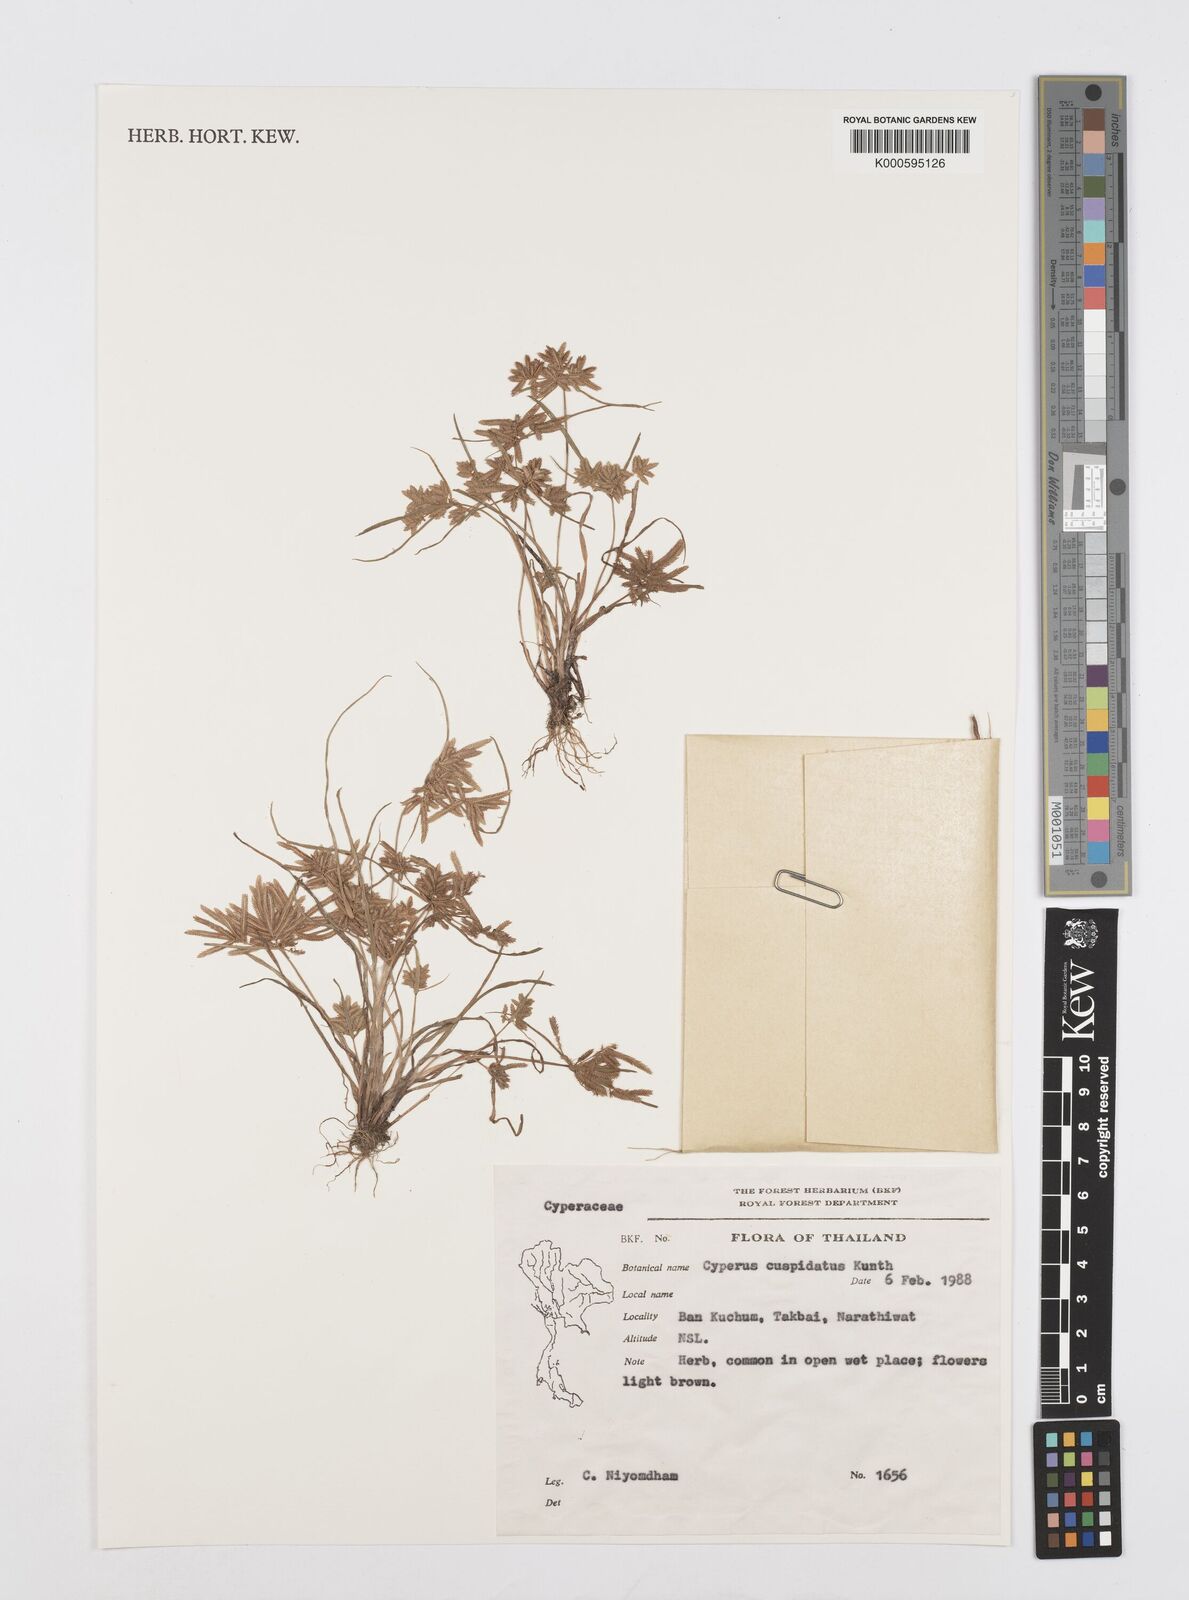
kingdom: Plantae
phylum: Tracheophyta
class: Liliopsida
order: Poales
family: Cyperaceae
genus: Cyperus
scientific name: Cyperus pumilus
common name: Low flatsedge
